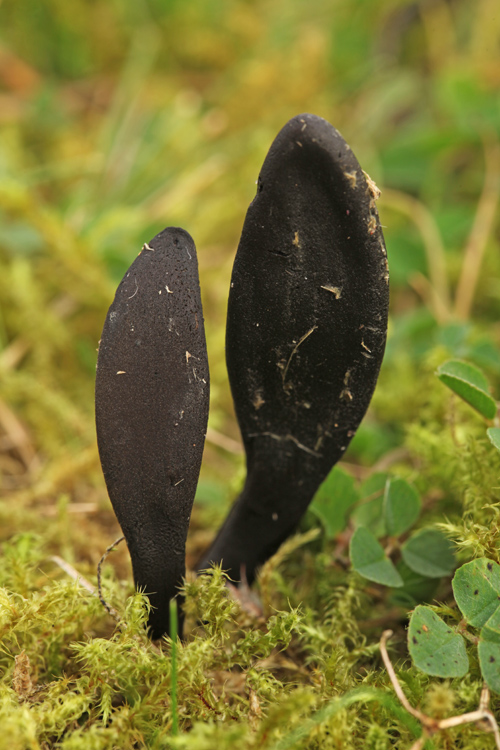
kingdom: Fungi
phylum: Ascomycota
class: Geoglossomycetes
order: Geoglossales
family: Geoglossaceae
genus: Geoglossum
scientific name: Geoglossum cookeianum
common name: bred jordtunge
